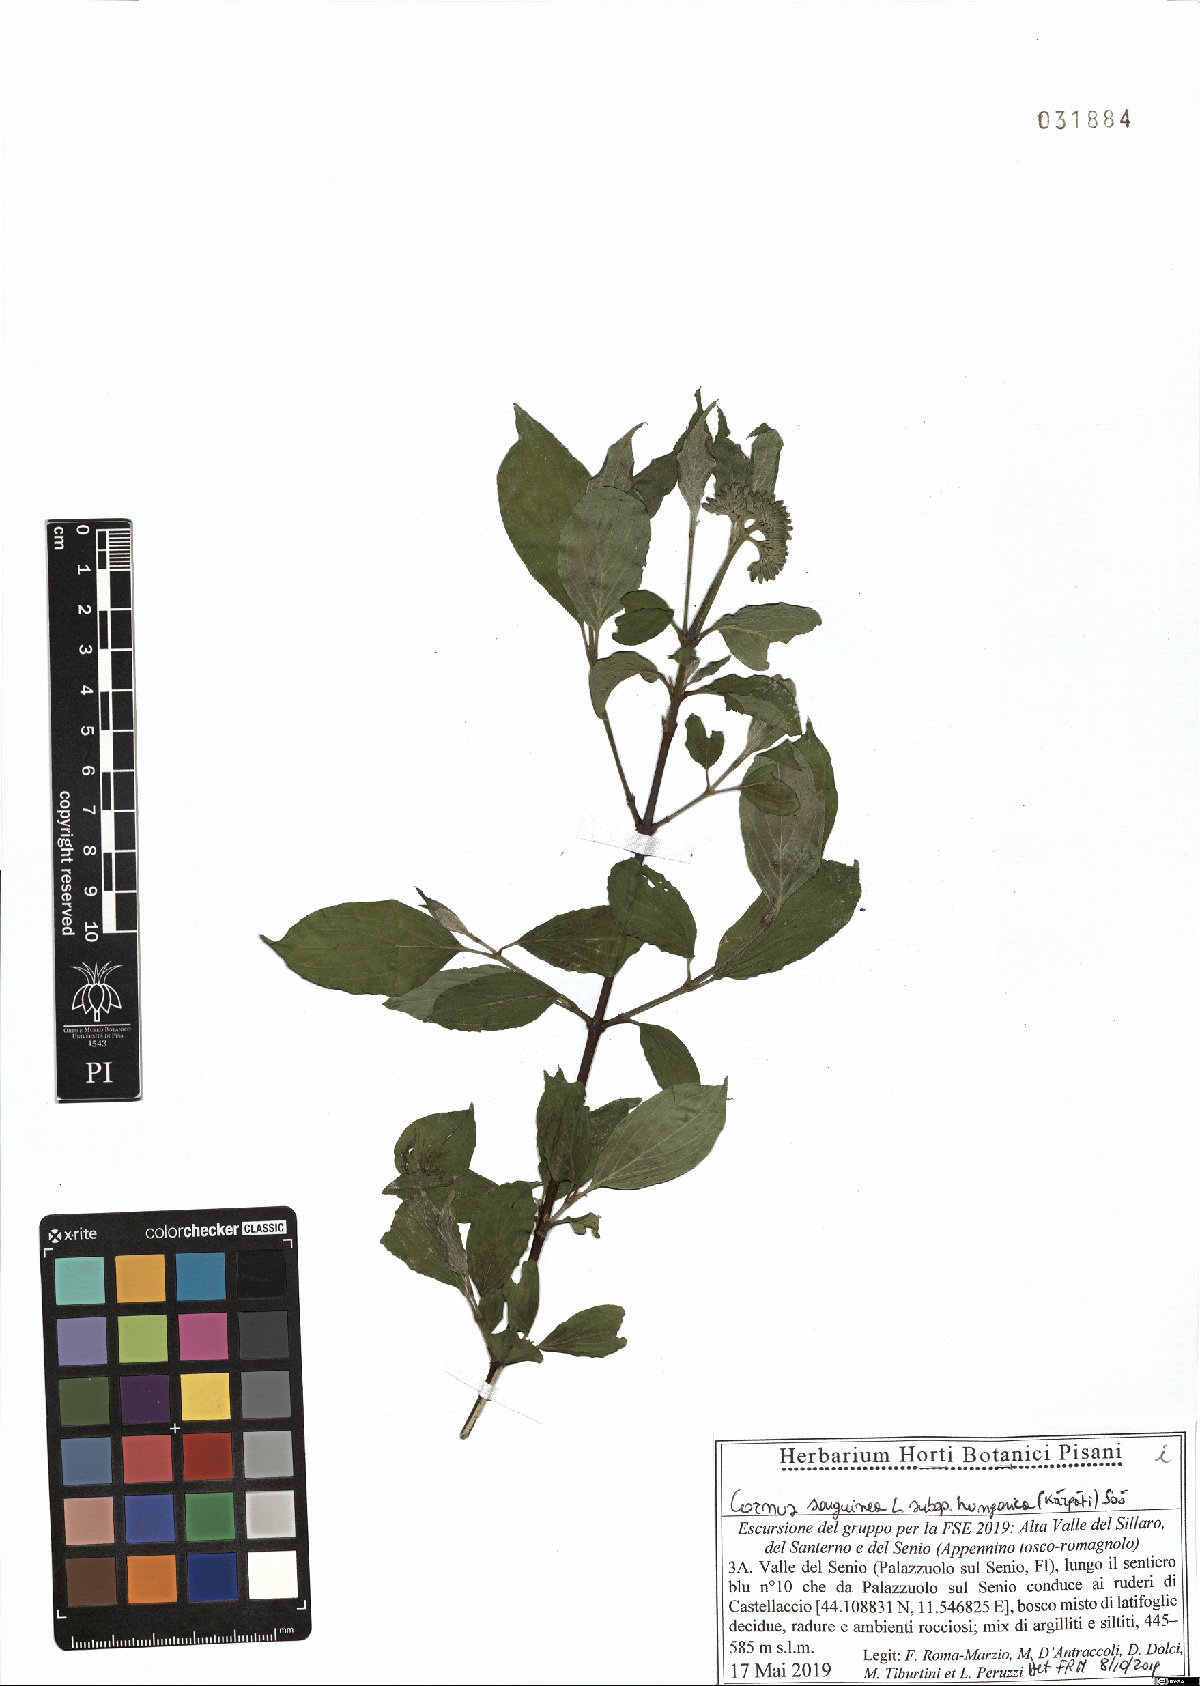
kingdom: Plantae
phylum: Tracheophyta
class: Magnoliopsida
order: Cornales
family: Cornaceae
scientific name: Cornaceae
